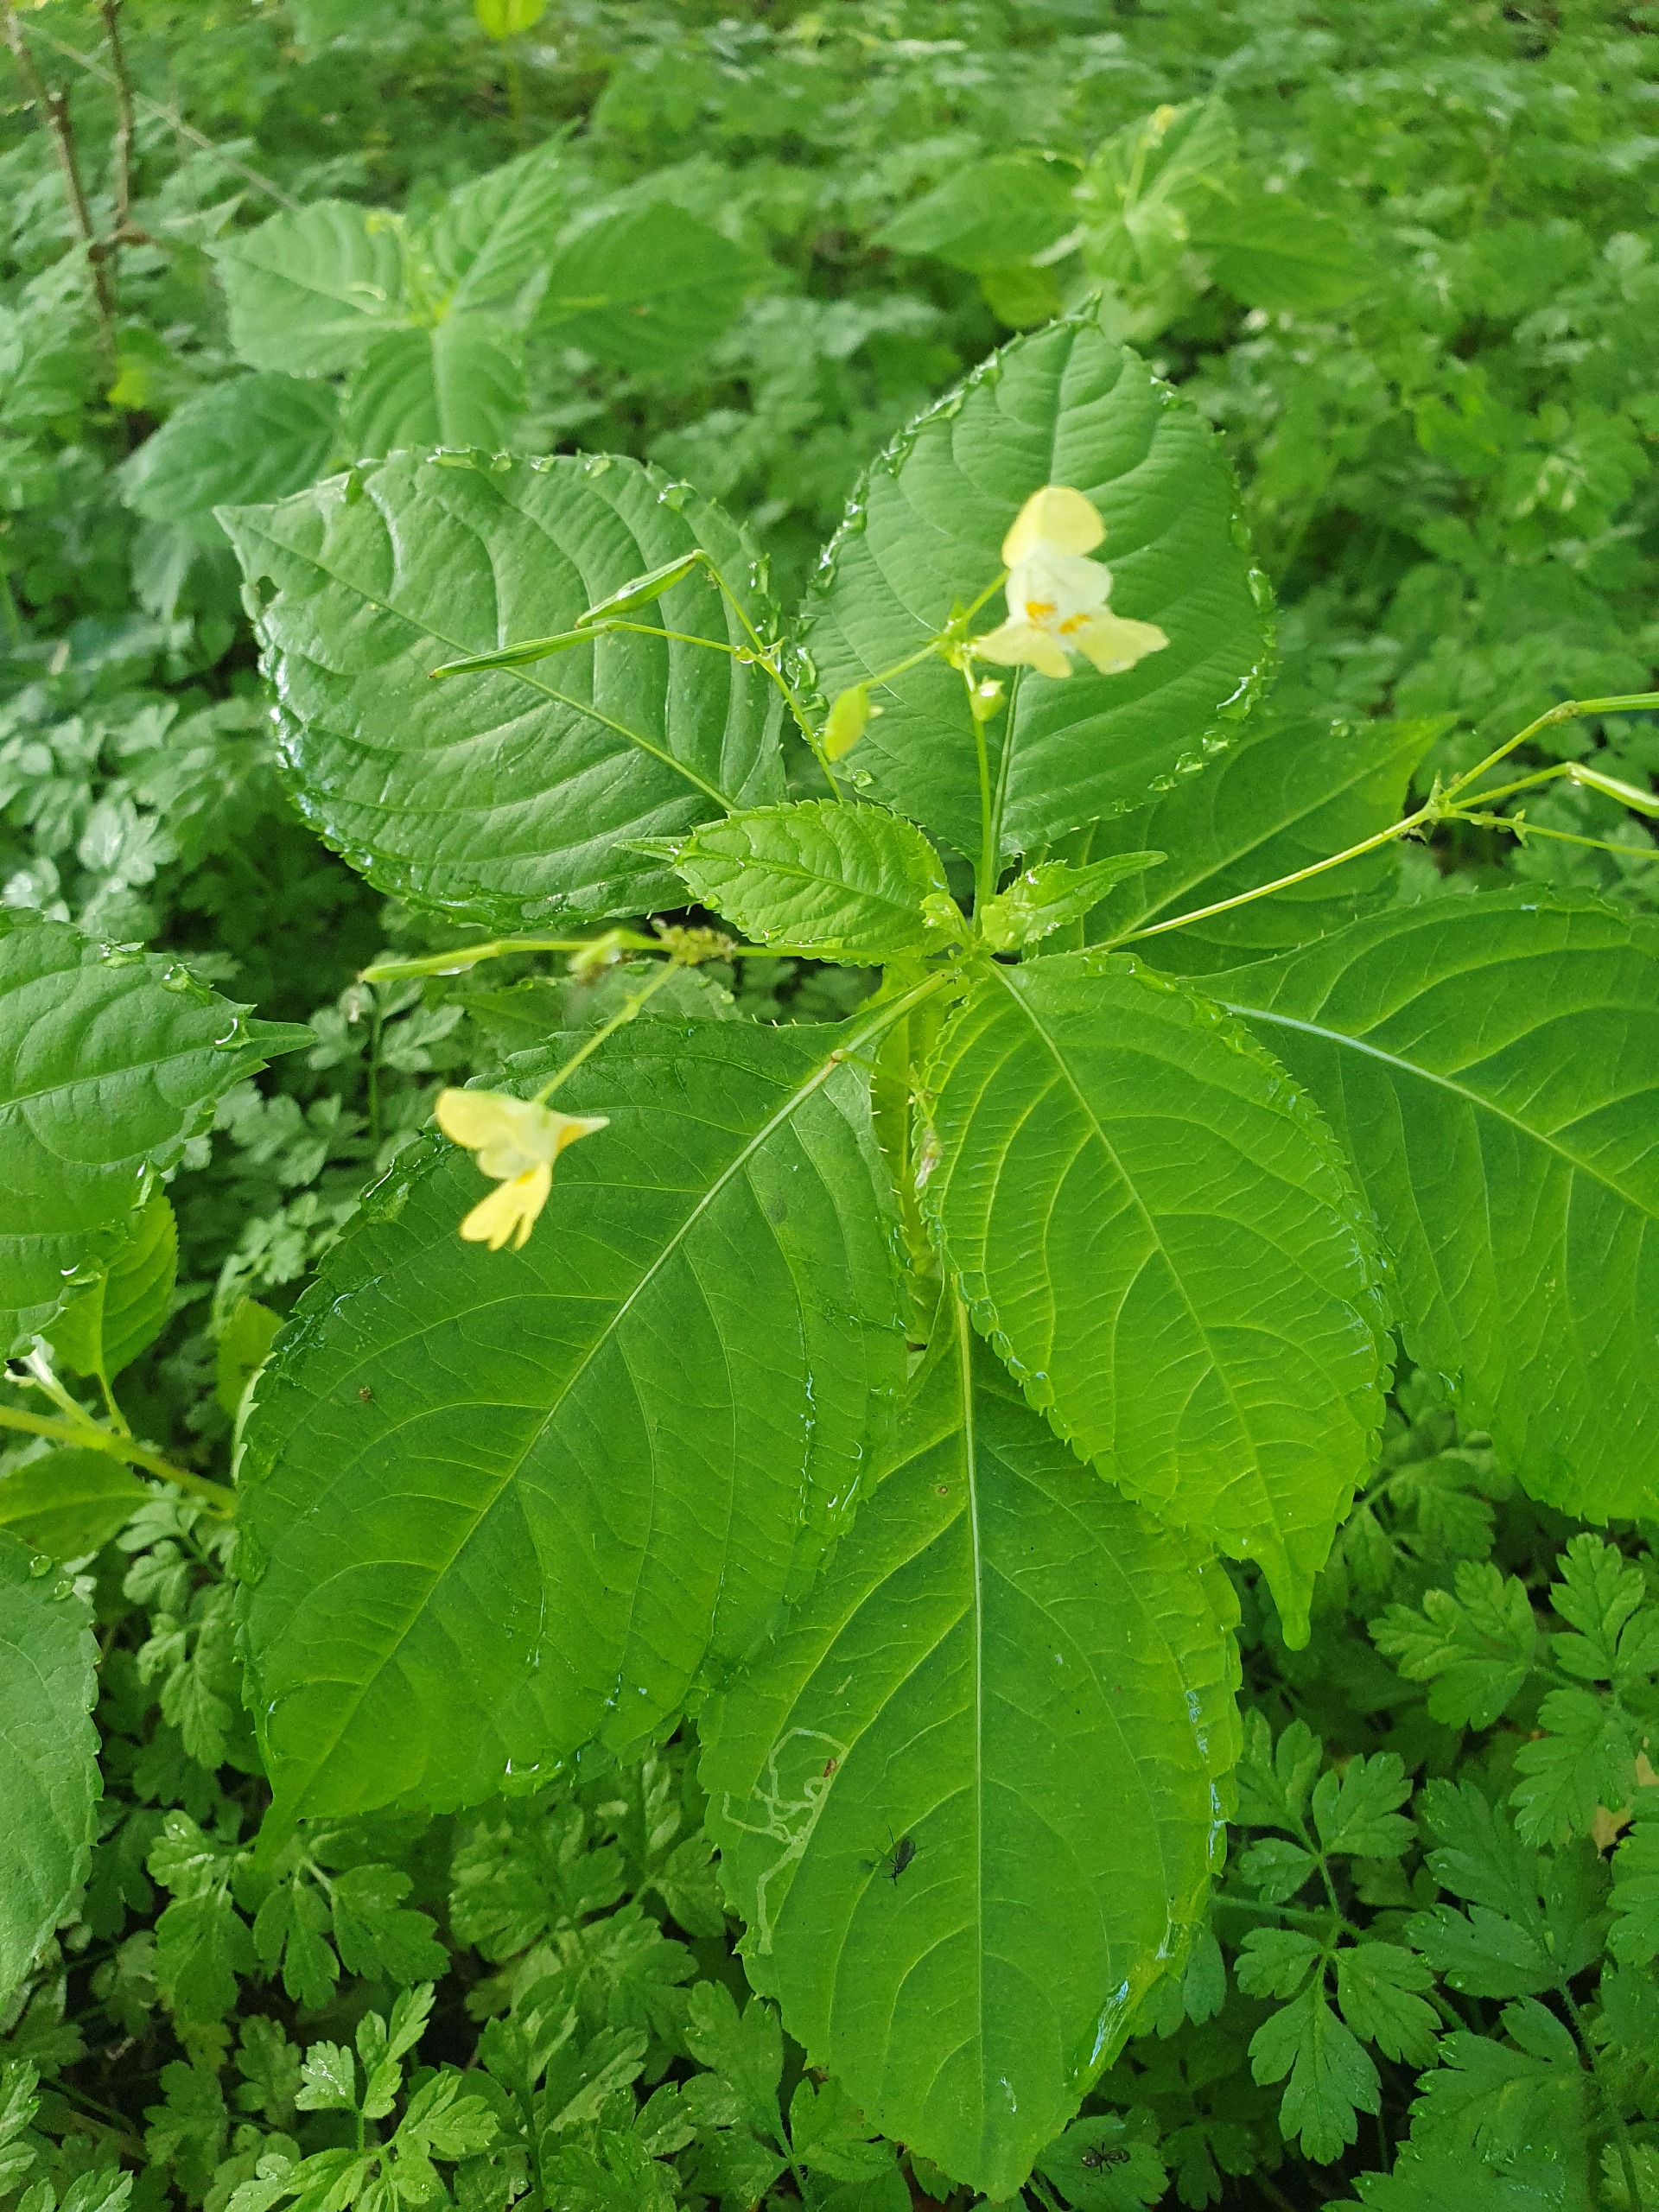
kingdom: Plantae
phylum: Tracheophyta
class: Magnoliopsida
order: Ericales
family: Balsaminaceae
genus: Impatiens
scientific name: Impatiens parviflora
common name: Småblomstret balsamin
